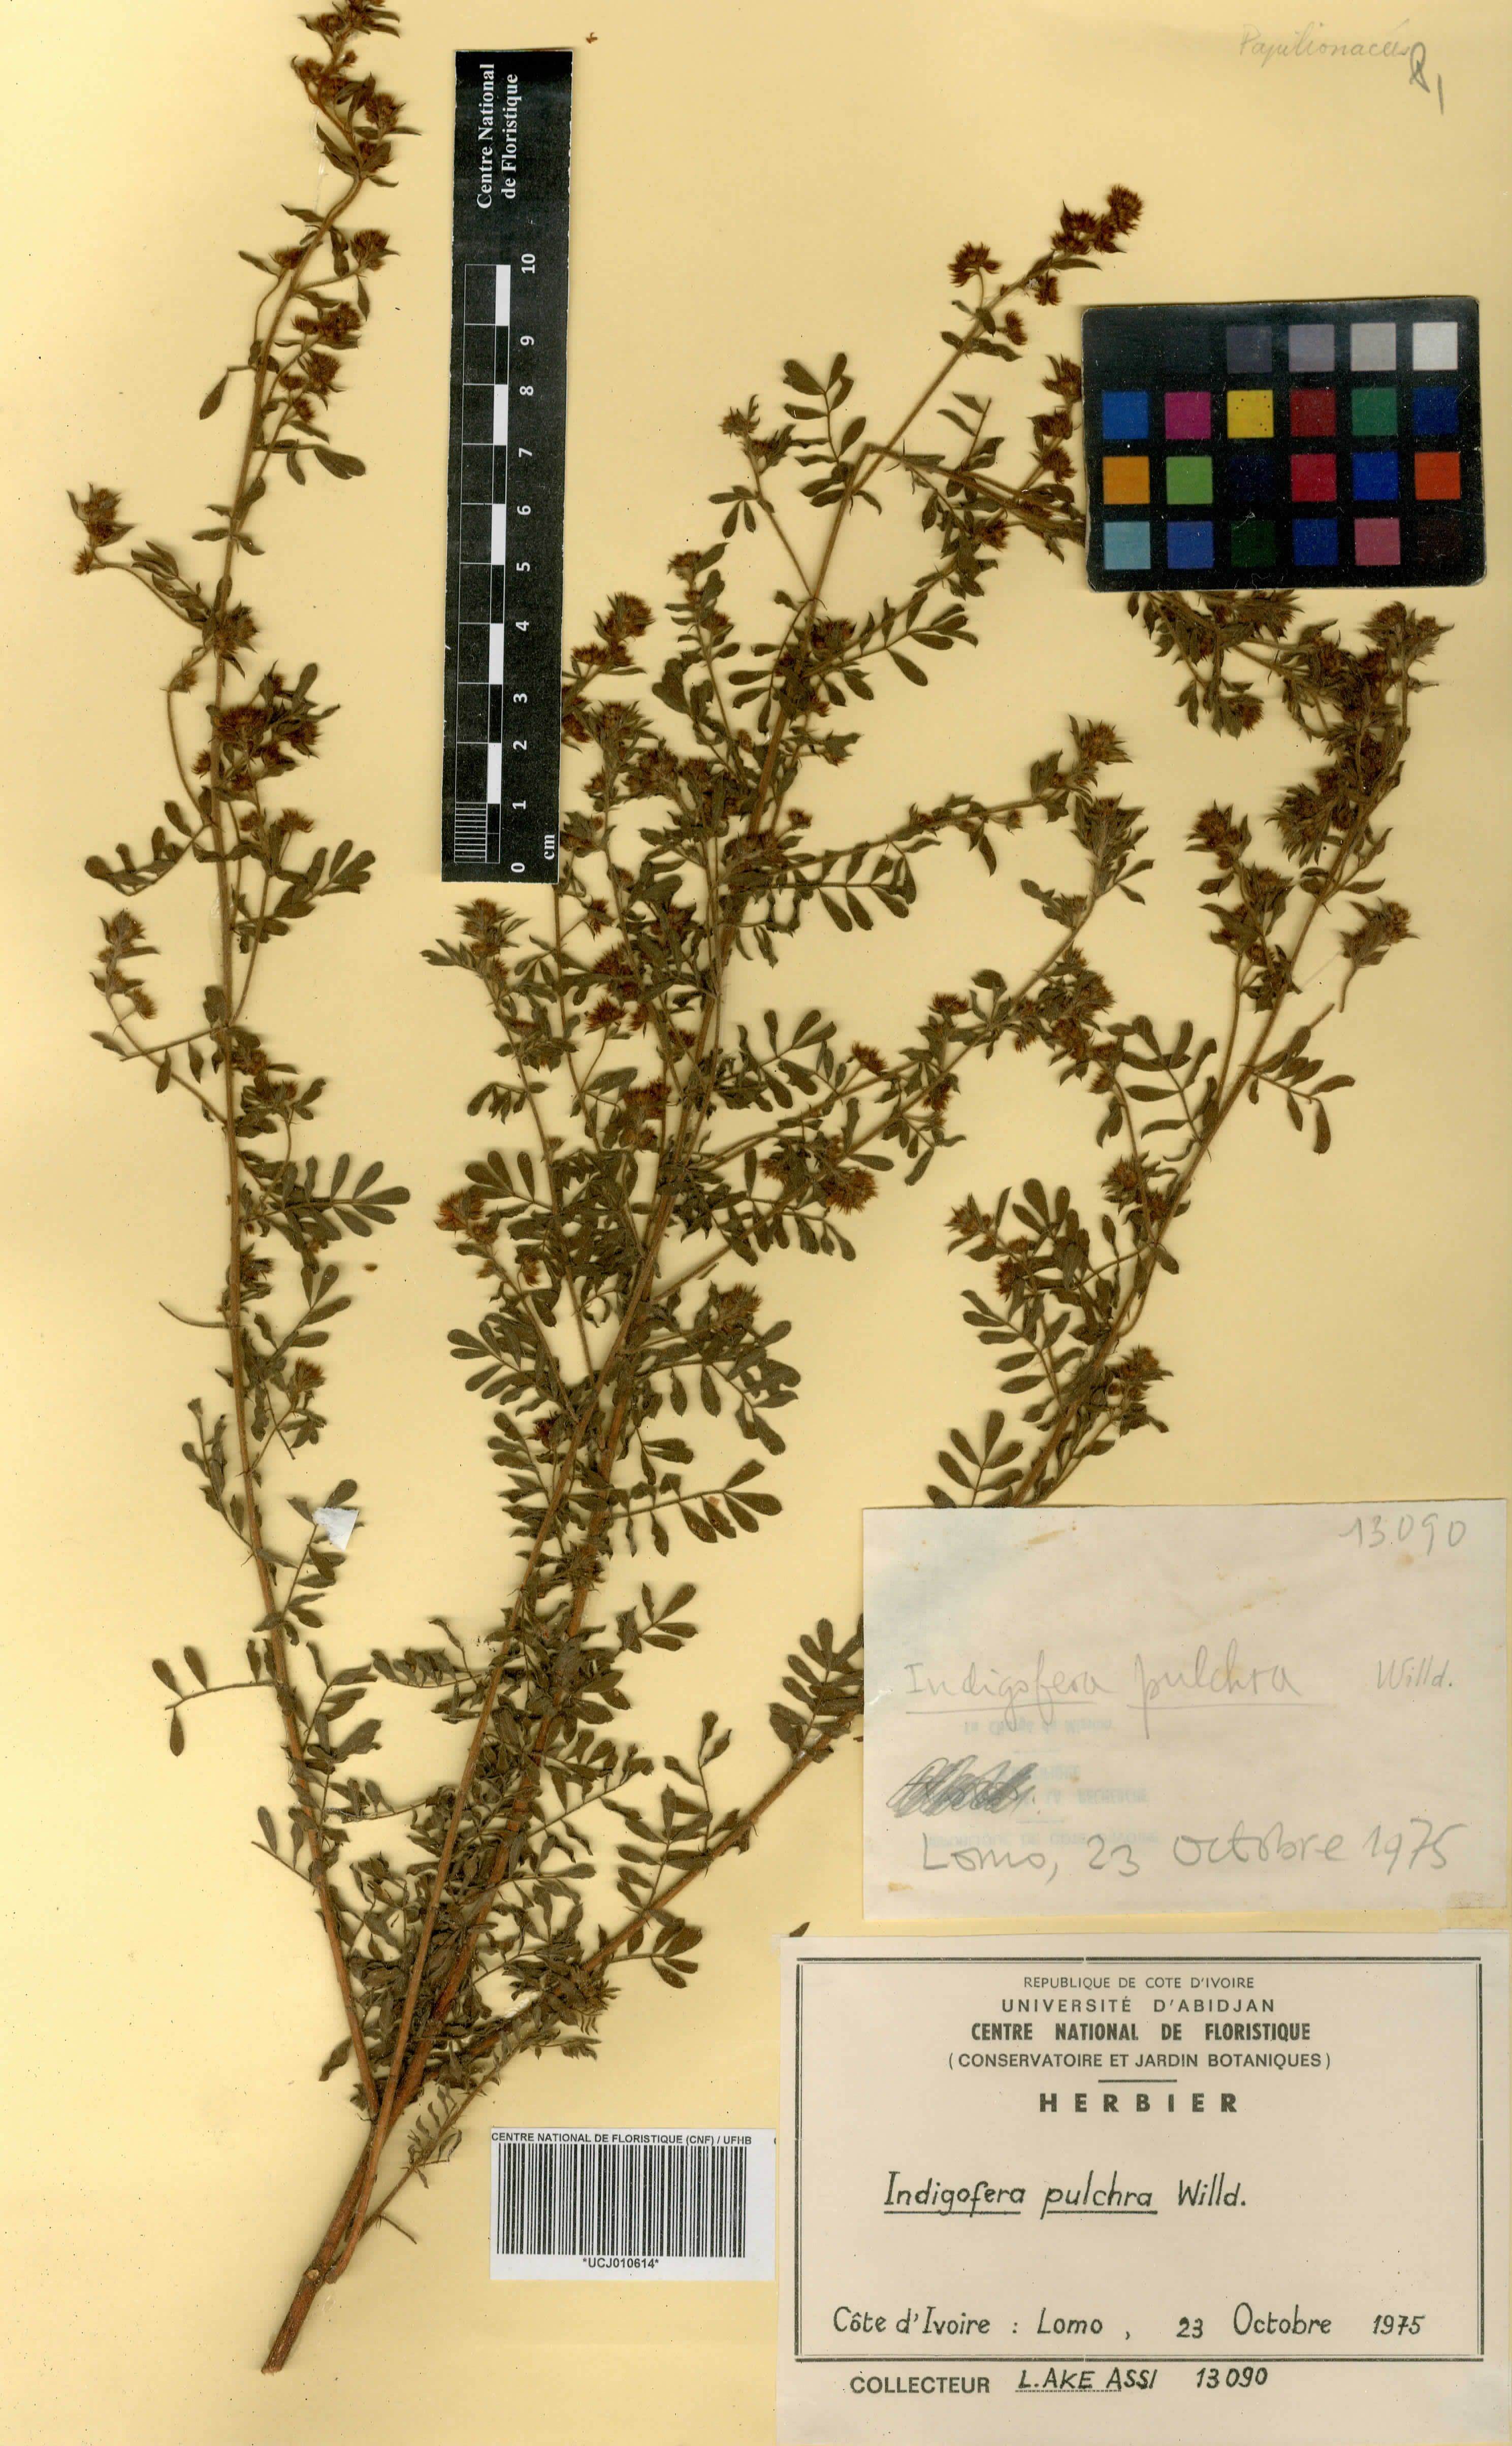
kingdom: Plantae
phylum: Tracheophyta
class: Magnoliopsida
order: Fabales
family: Fabaceae
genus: Indigofera
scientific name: Indigofera pulchra
